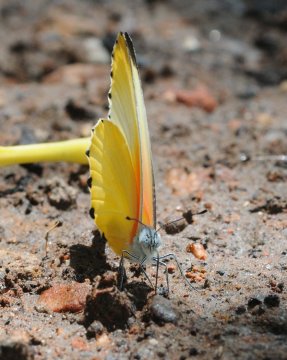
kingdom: Animalia
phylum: Arthropoda
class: Insecta
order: Lepidoptera
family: Pieridae
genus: Mylothris
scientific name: Mylothris agathina
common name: Eastern Dotted Border
